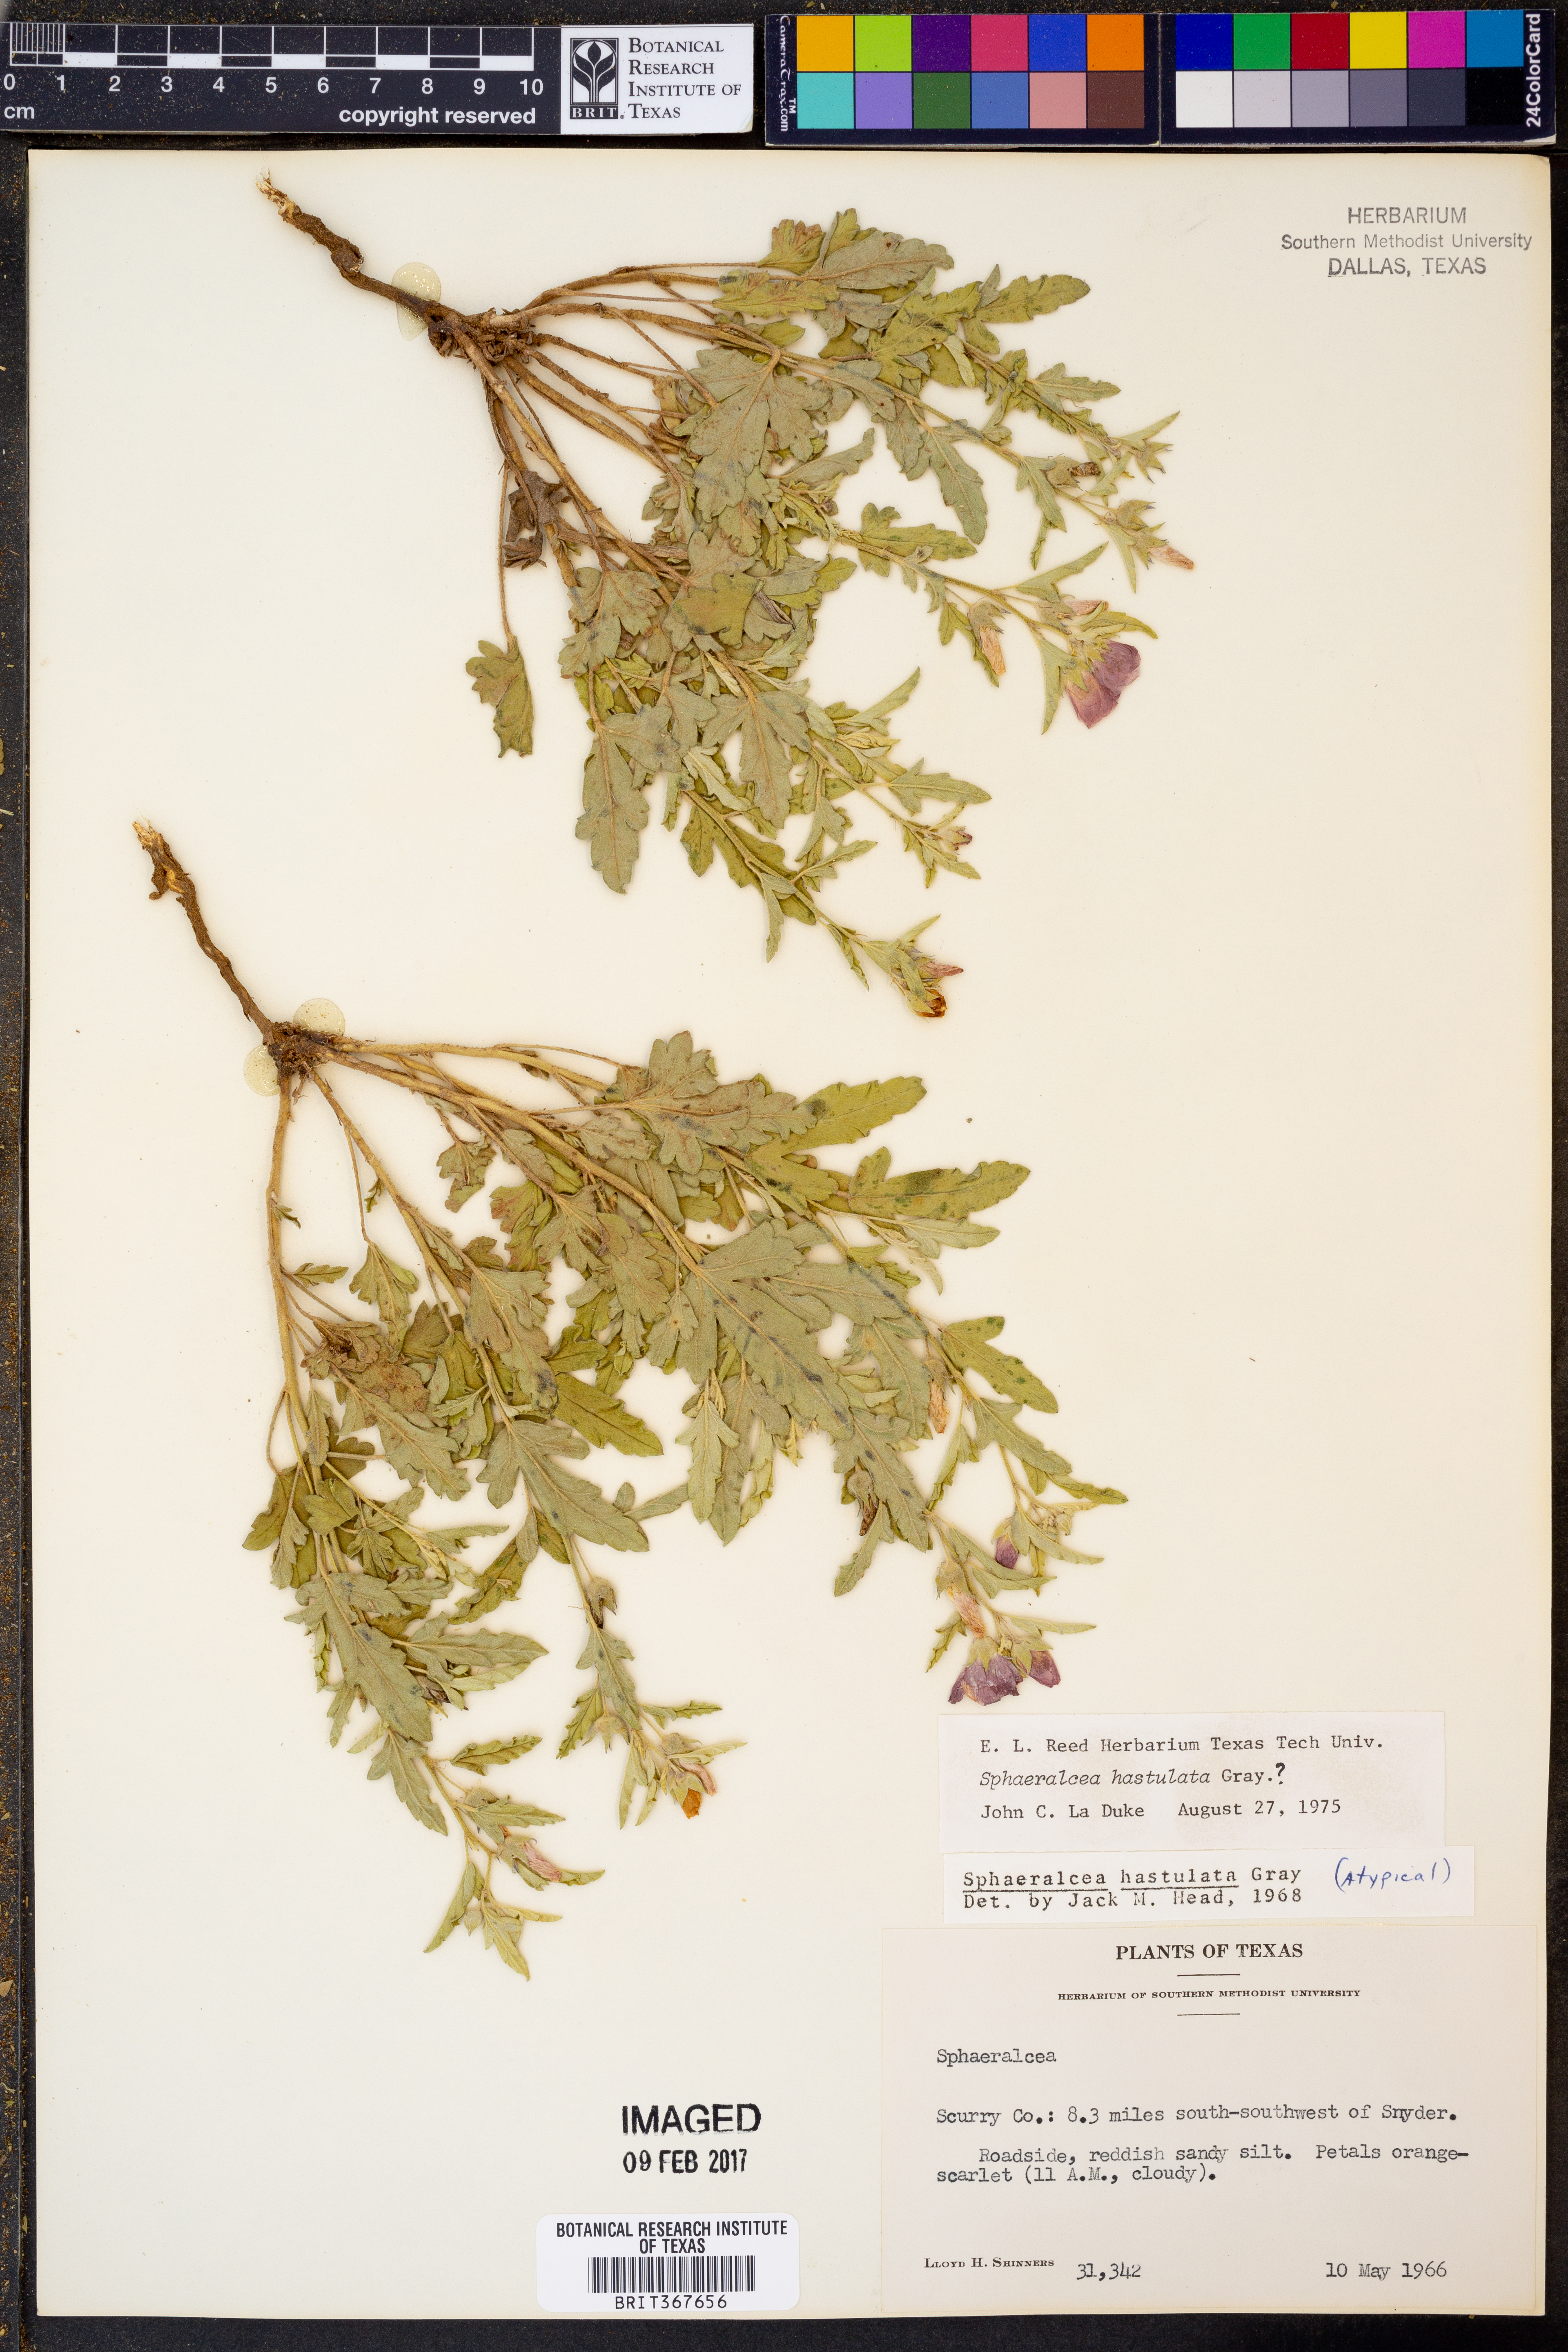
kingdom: Plantae
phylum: Tracheophyta
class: Magnoliopsida
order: Malvales
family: Malvaceae
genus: Sphaeralcea
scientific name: Sphaeralcea hastulata
